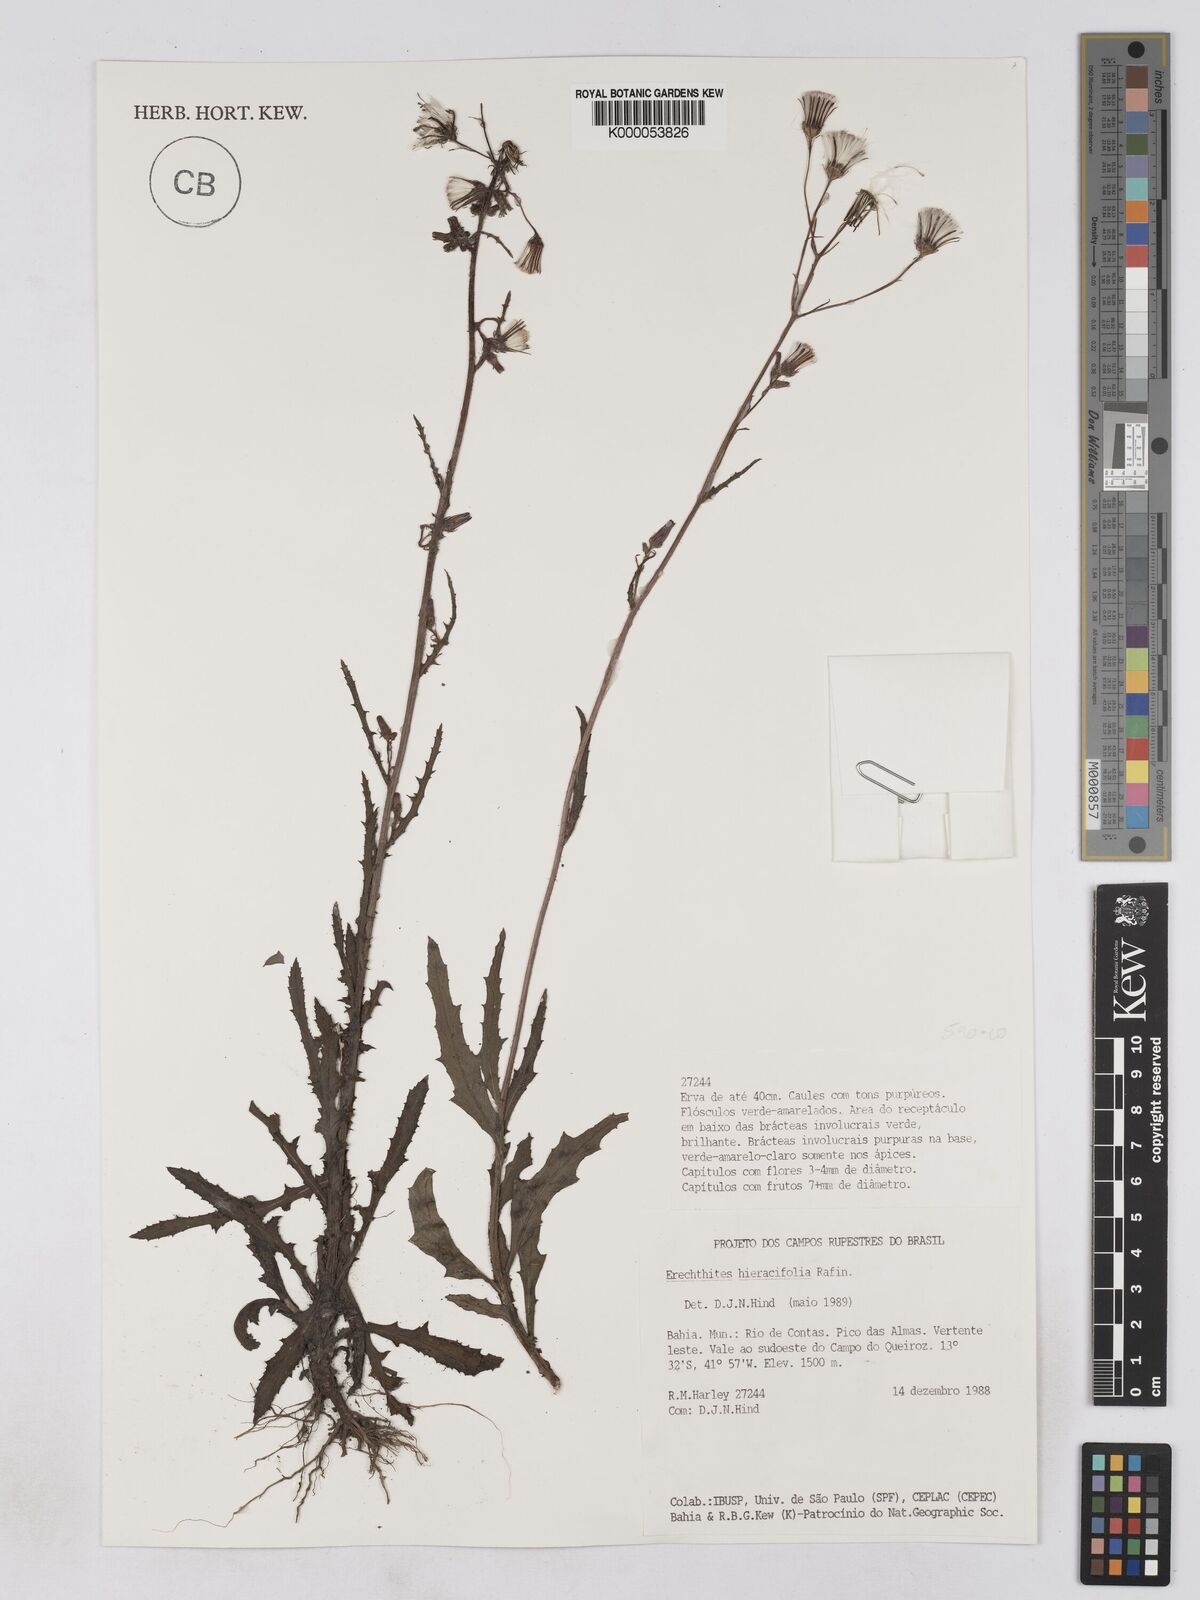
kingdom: Plantae
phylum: Tracheophyta
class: Magnoliopsida
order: Asterales
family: Asteraceae
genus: Erechtites
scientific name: Erechtites hieraciifolius
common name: American burnweed
